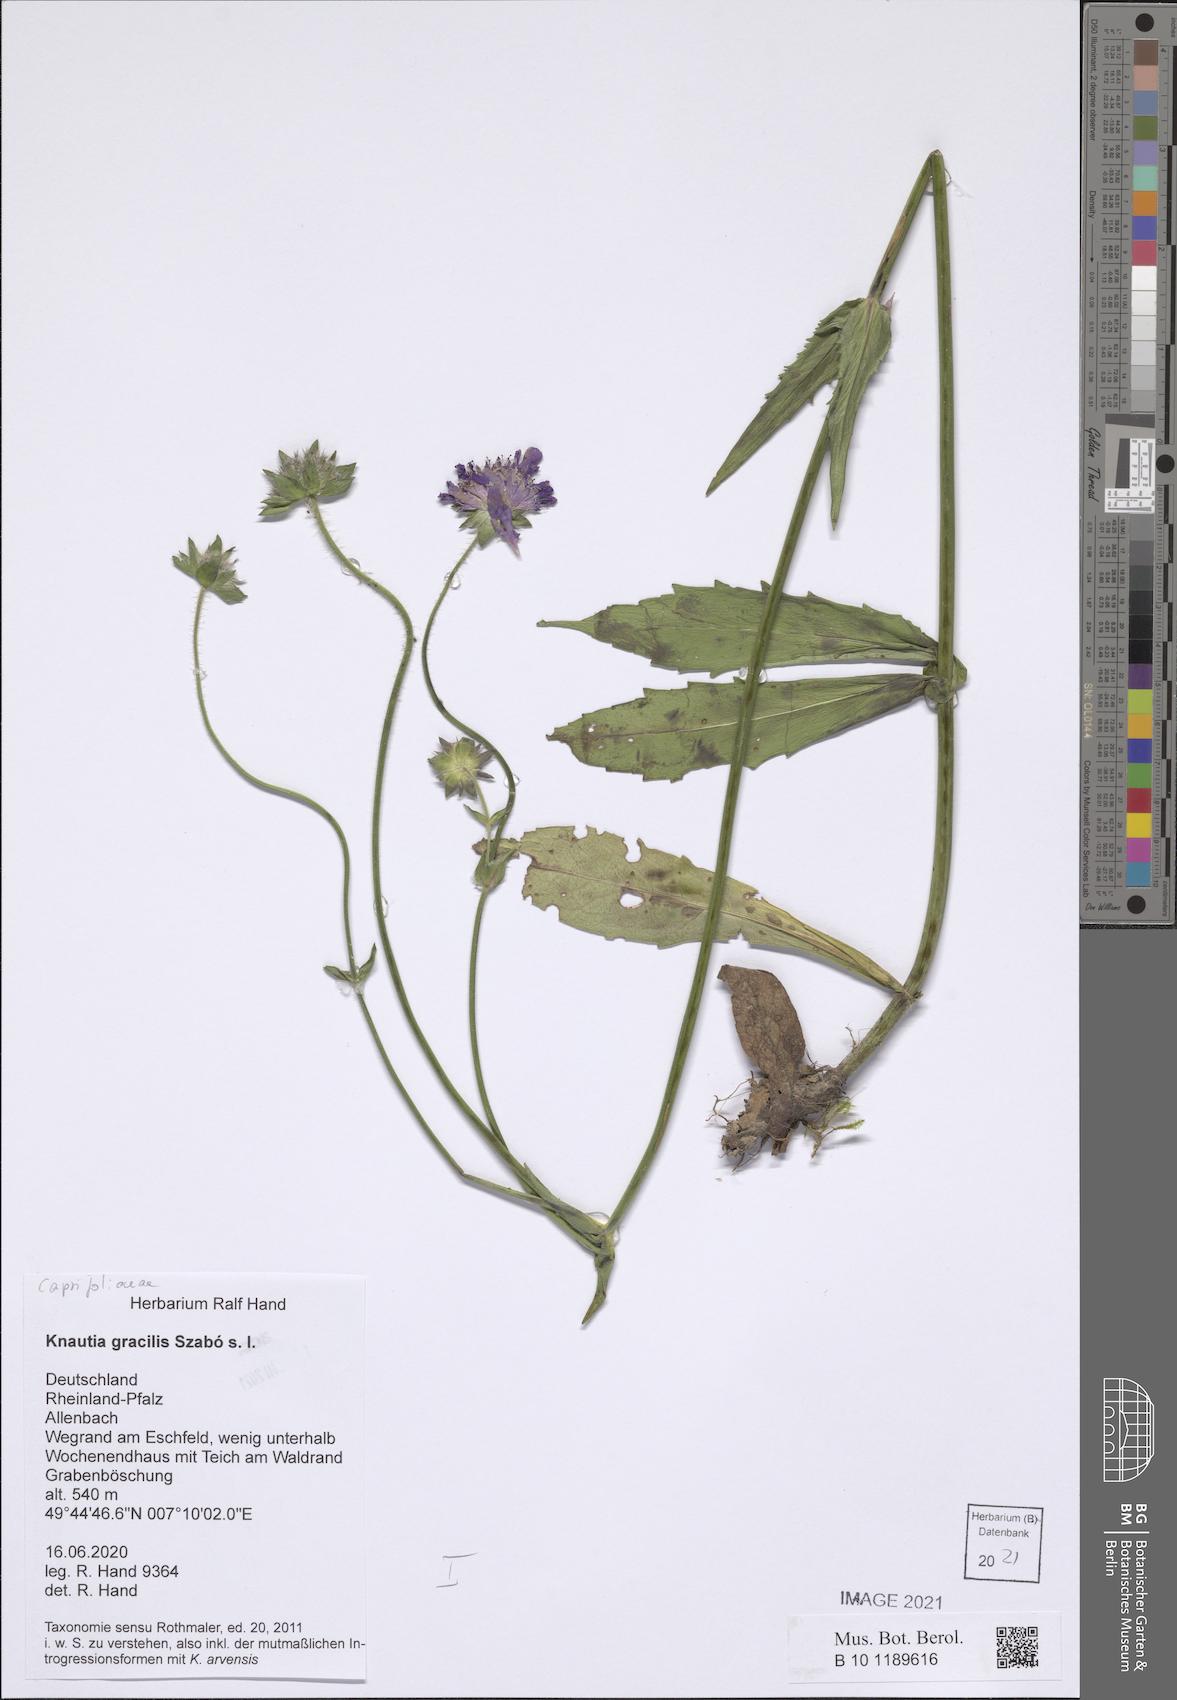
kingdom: Plantae
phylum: Tracheophyta
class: Magnoliopsida
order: Dipsacales
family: Caprifoliaceae
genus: Knautia
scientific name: Knautia gracilis
